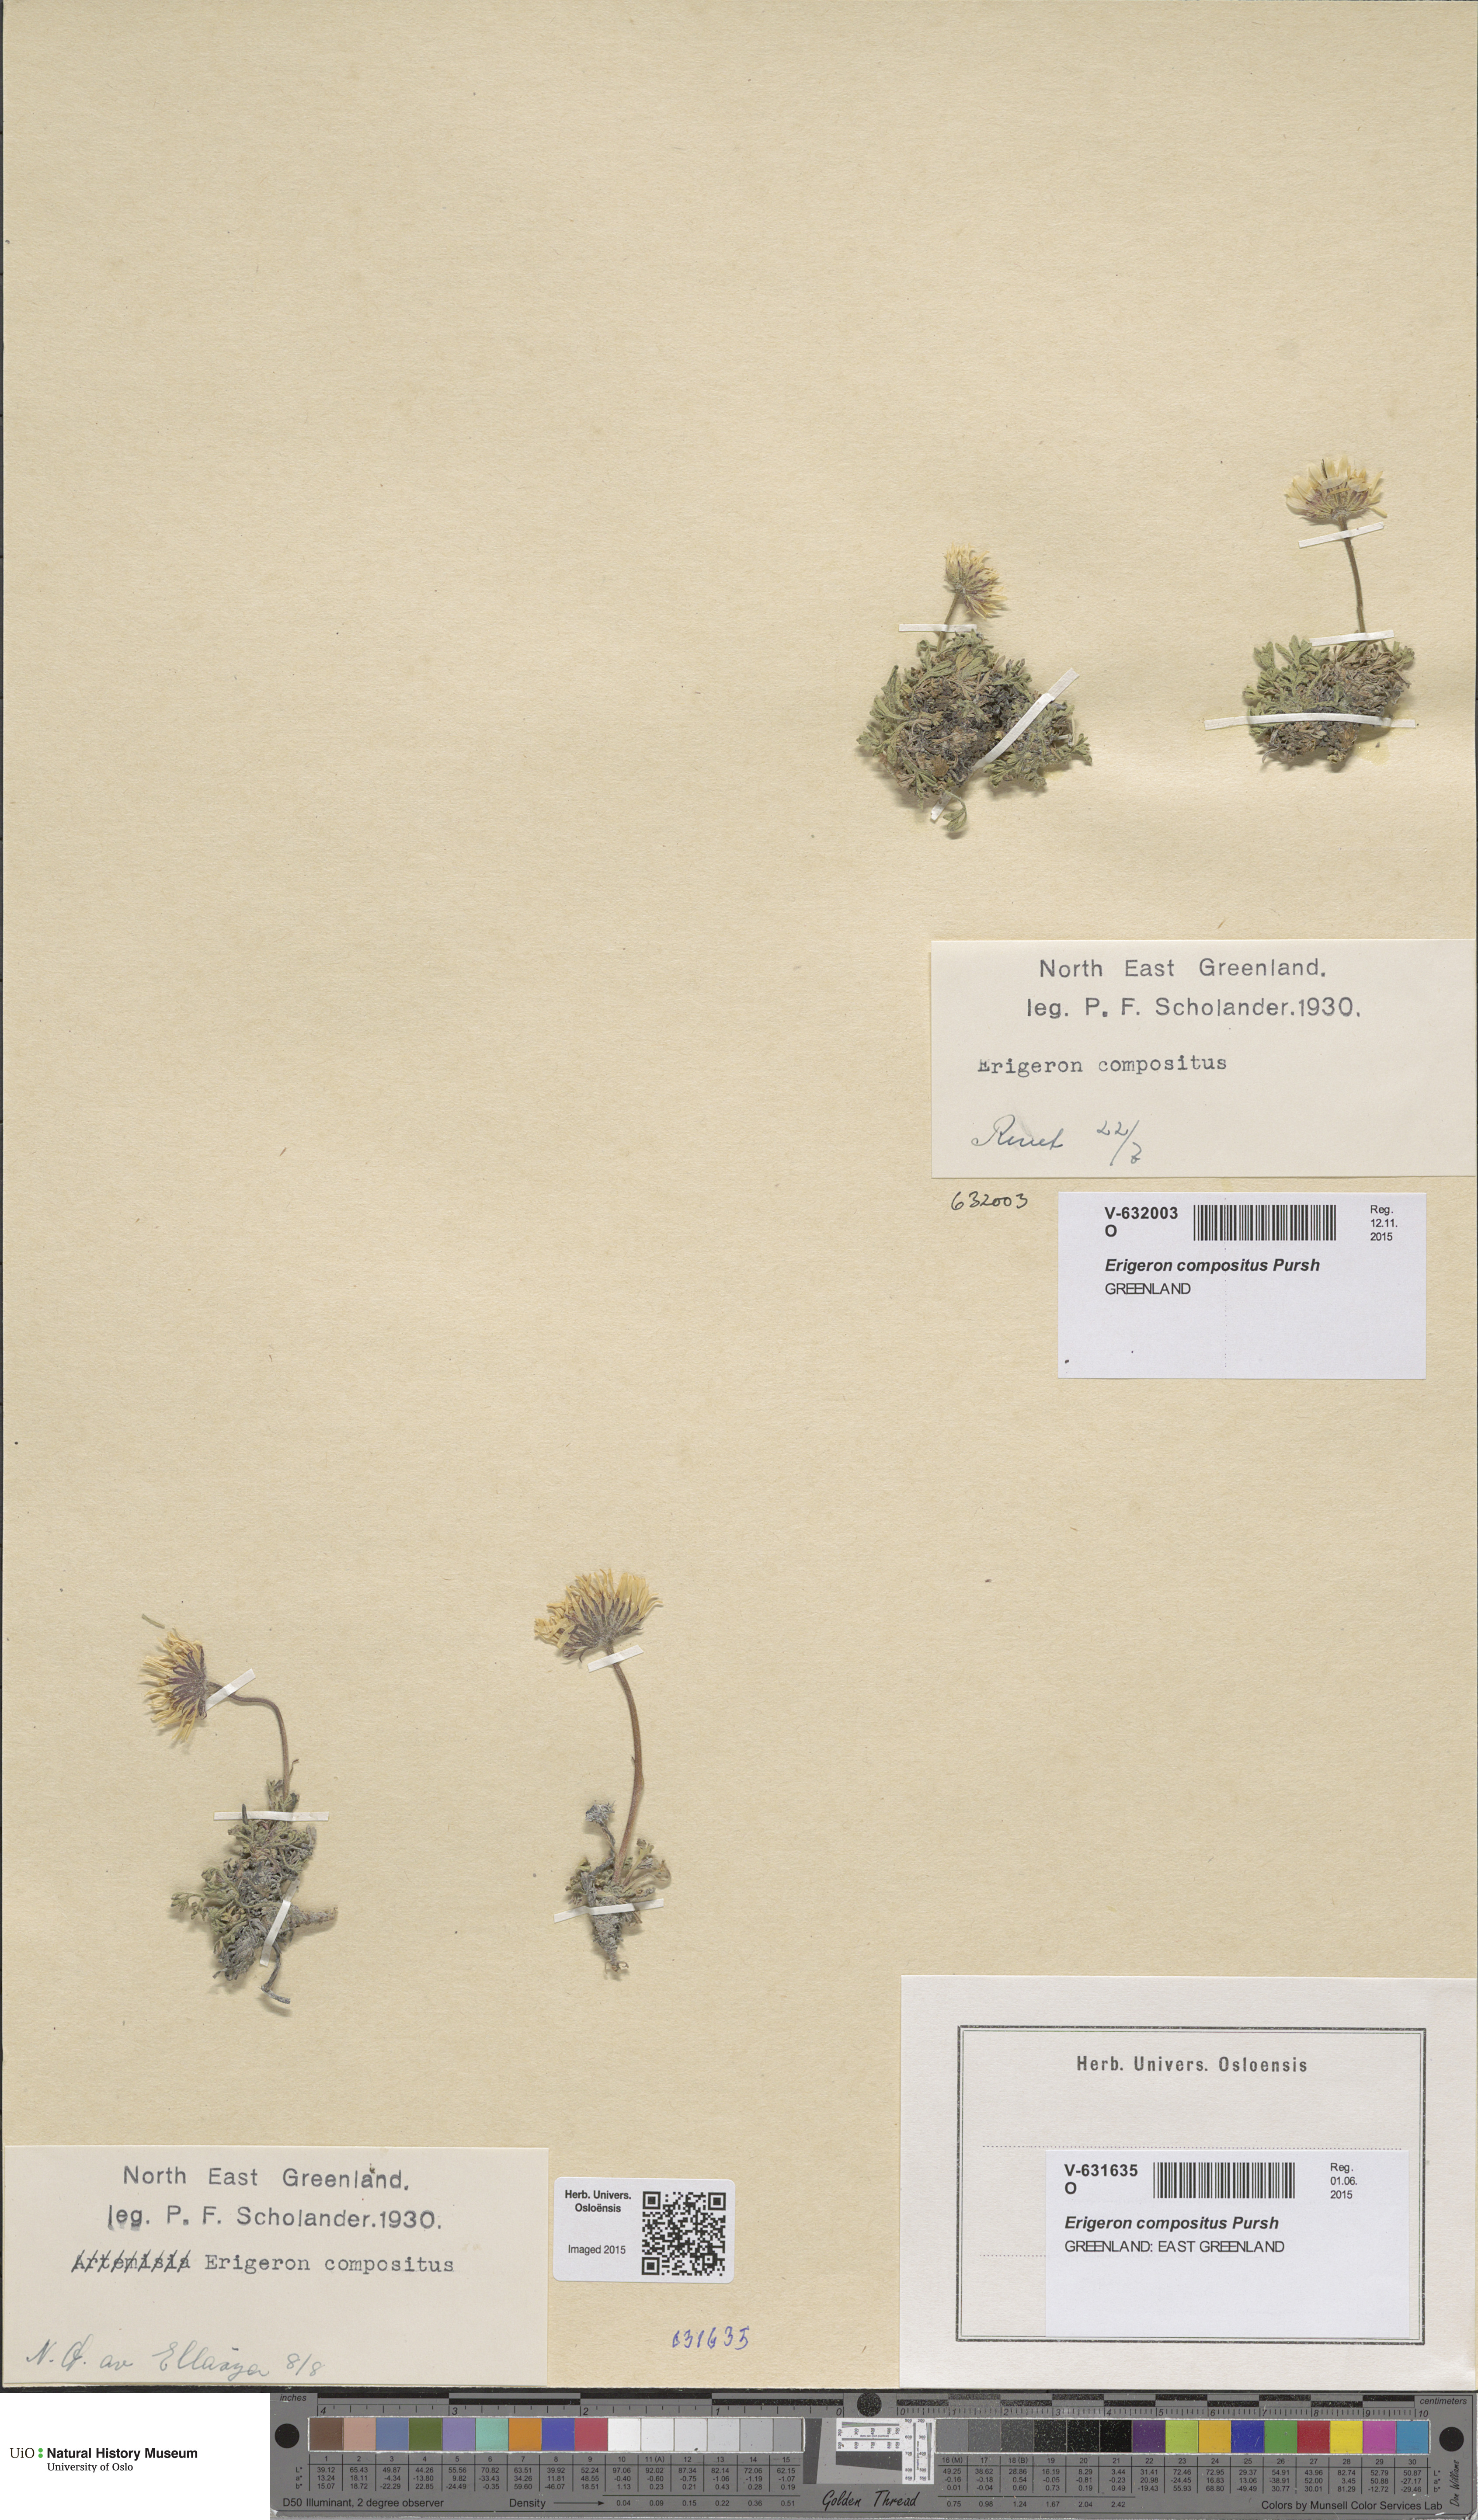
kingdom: Plantae
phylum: Tracheophyta
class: Magnoliopsida
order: Asterales
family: Asteraceae
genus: Erigeron
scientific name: Erigeron compositus
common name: Dwarf mountain fleabane
